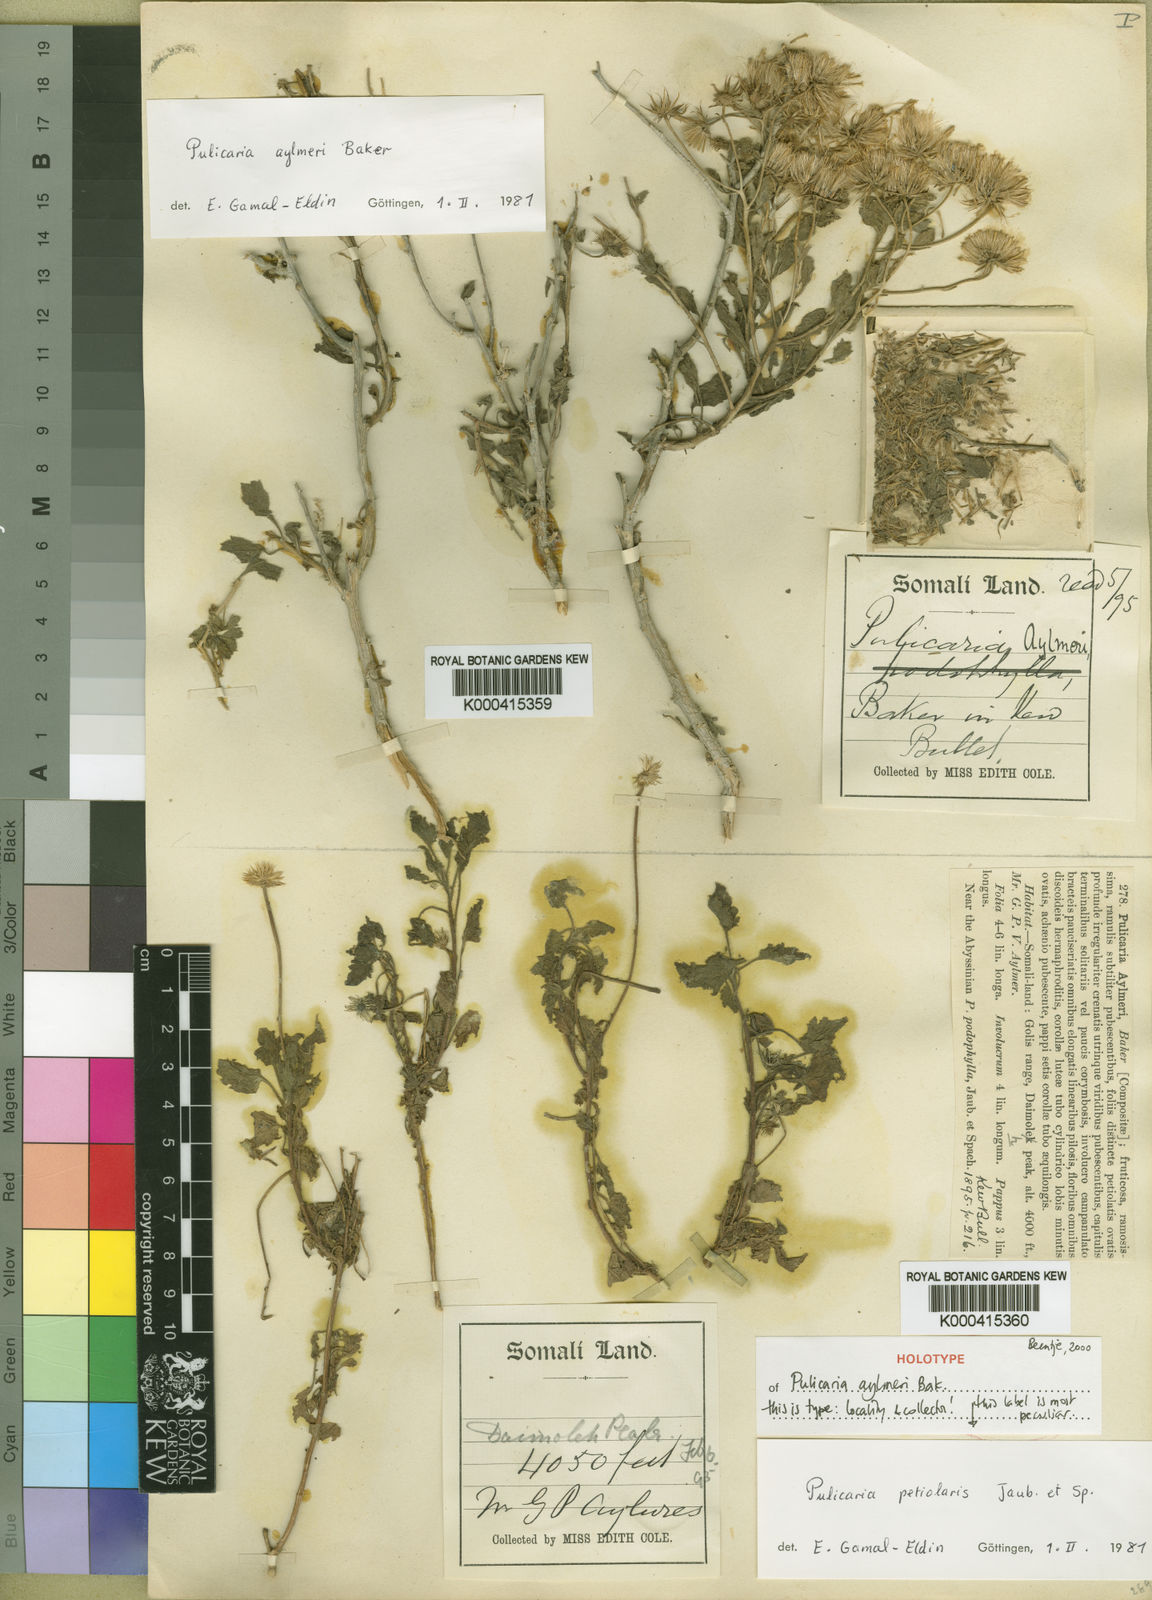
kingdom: Plantae
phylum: Tracheophyta
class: Magnoliopsida
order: Asterales
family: Asteraceae
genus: Pulicaria
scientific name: Pulicaria aylmeri
